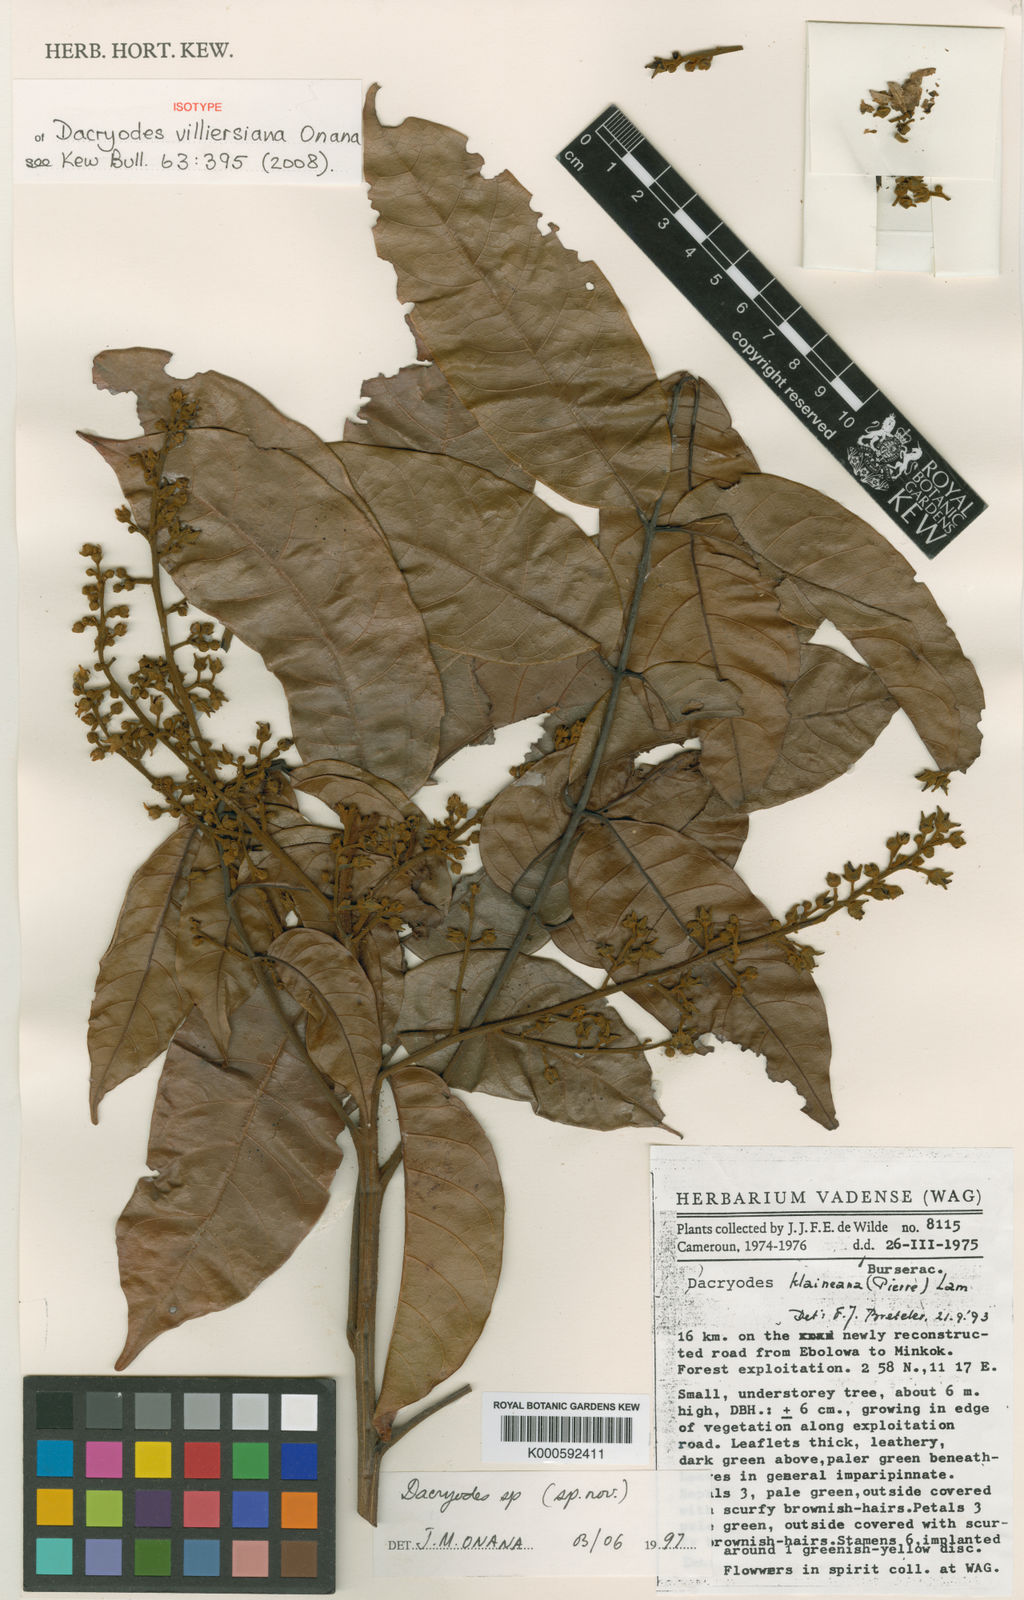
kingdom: Plantae
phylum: Tracheophyta
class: Magnoliopsida
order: Sapindales
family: Burseraceae
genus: Pachylobus
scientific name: Pachylobus villiersiana
